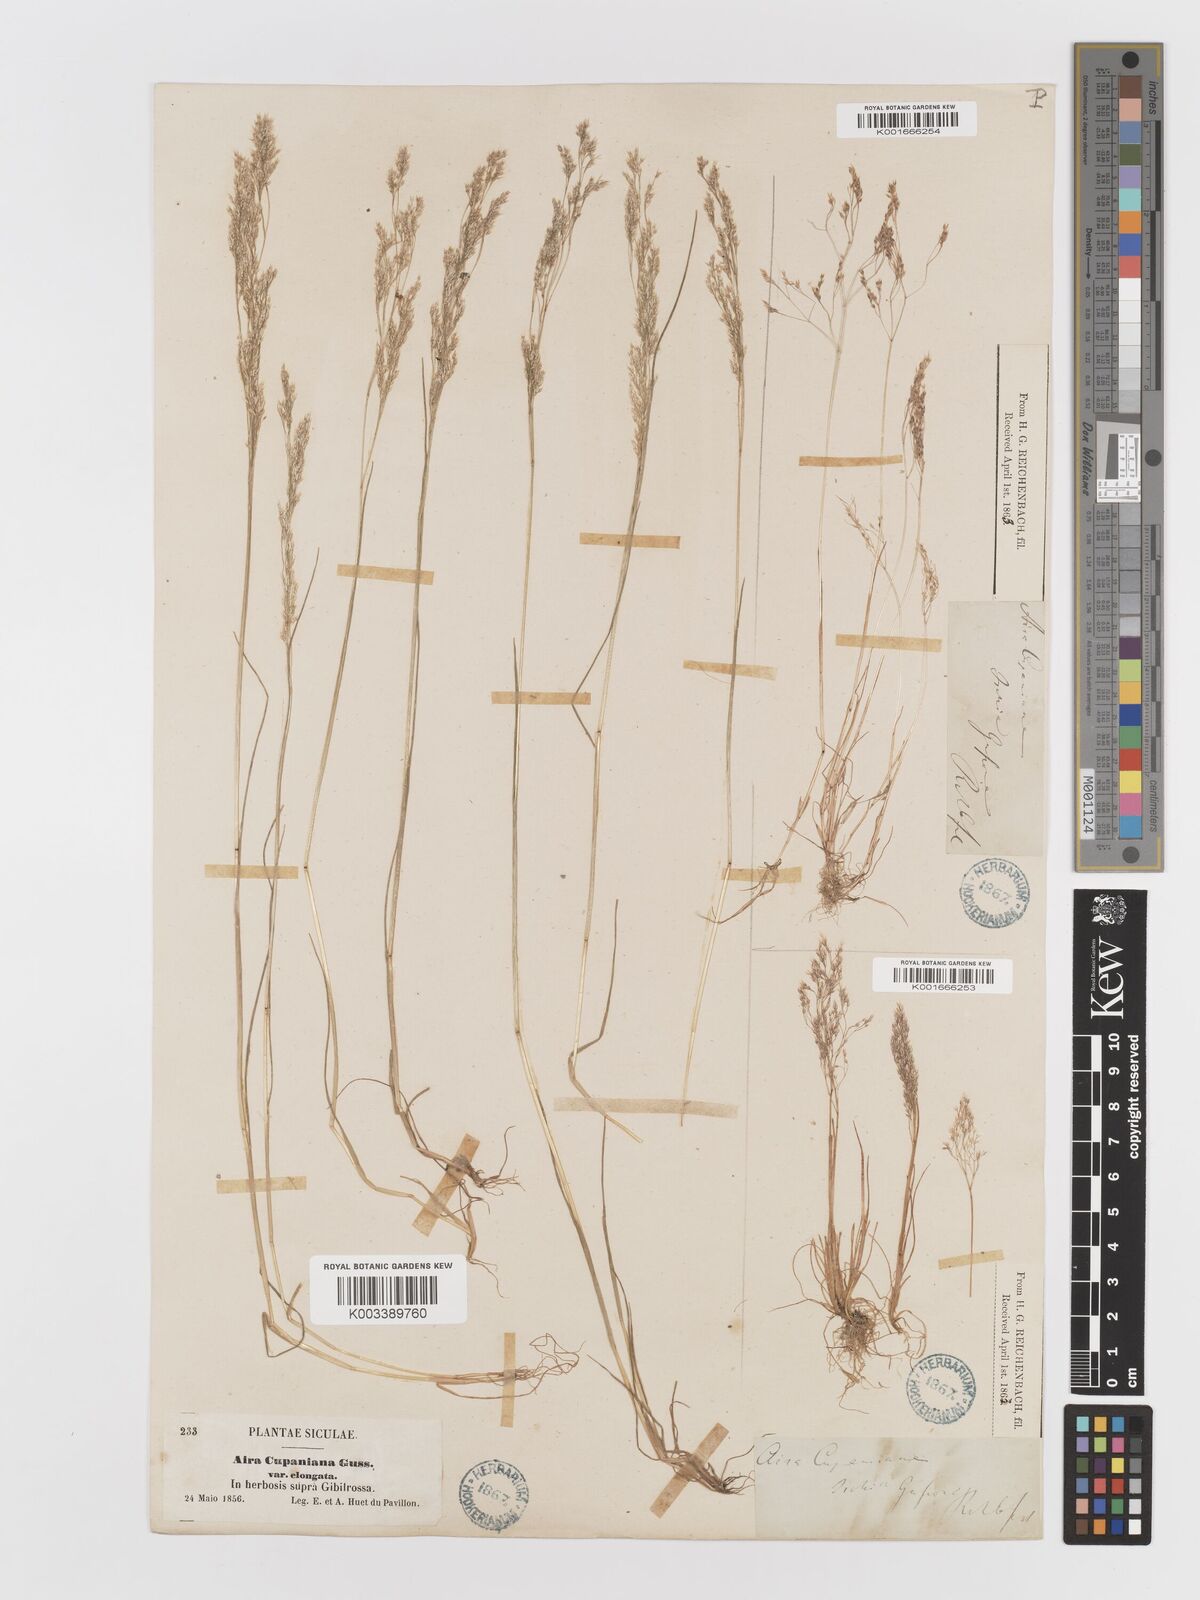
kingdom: Plantae
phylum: Tracheophyta
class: Liliopsida
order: Poales
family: Poaceae
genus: Aira
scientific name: Aira cupaniana
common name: Silver hairgrass
